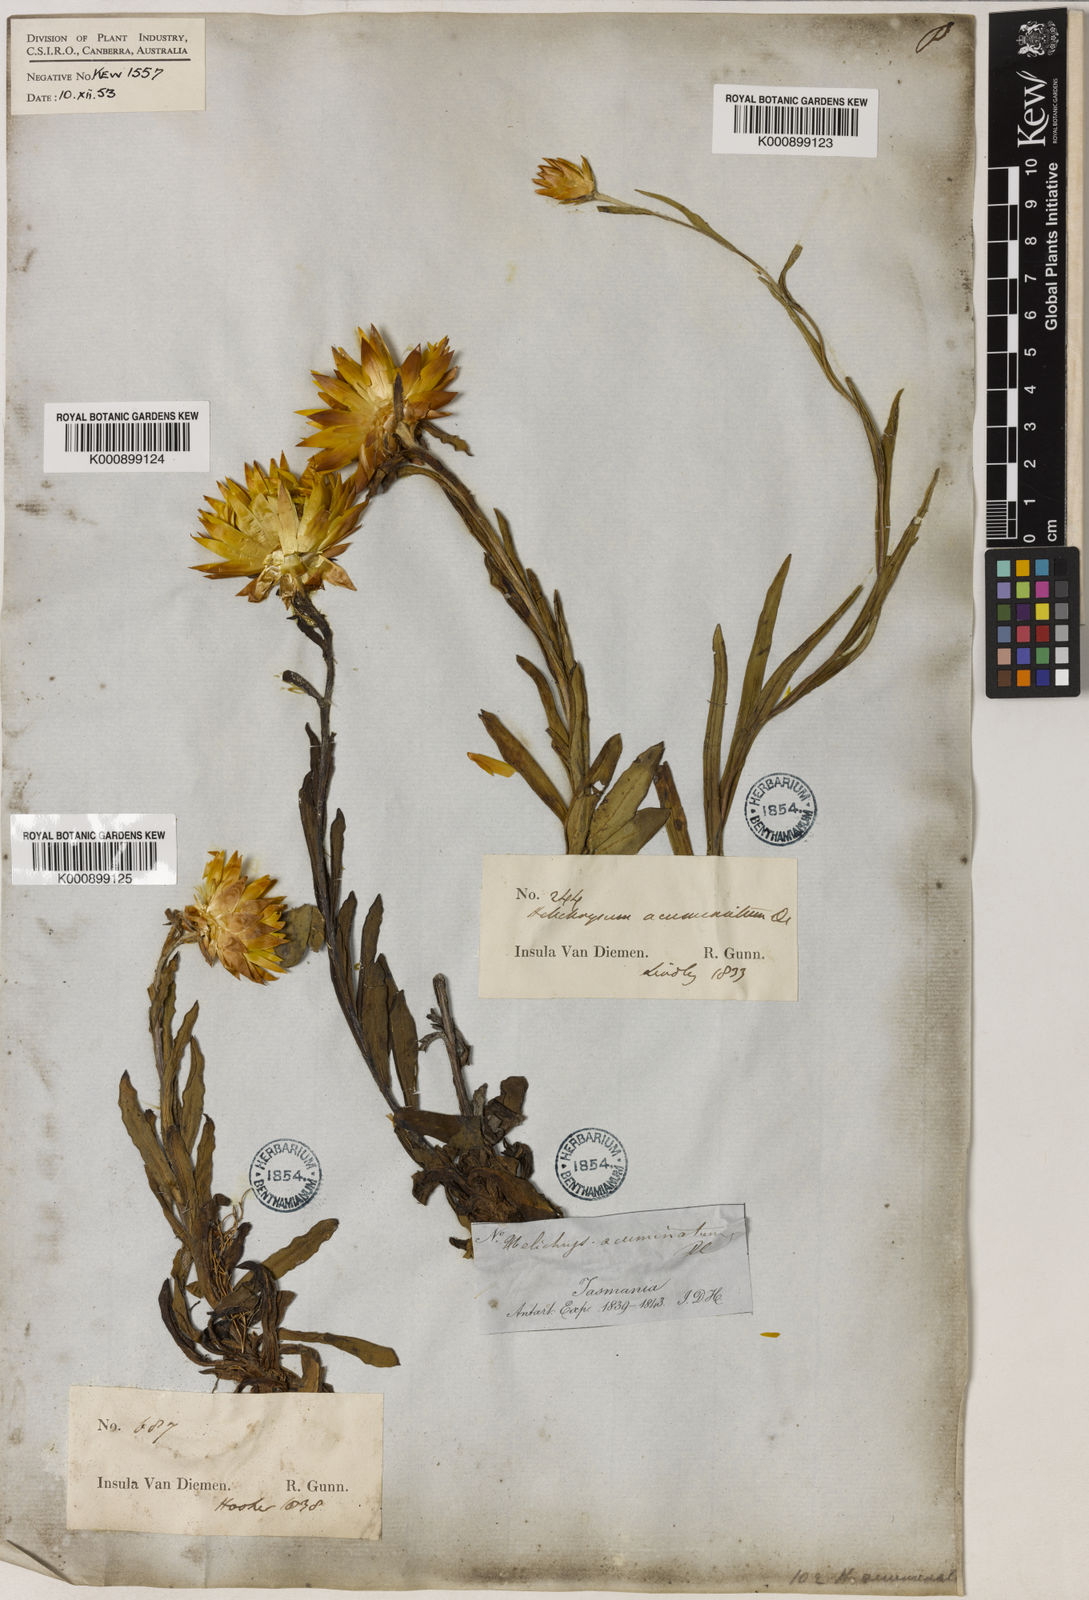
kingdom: Plantae
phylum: Tracheophyta
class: Magnoliopsida
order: Asterales
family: Asteraceae
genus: Xerochrysum
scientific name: Xerochrysum bracteatum
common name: Bracted strawflower
